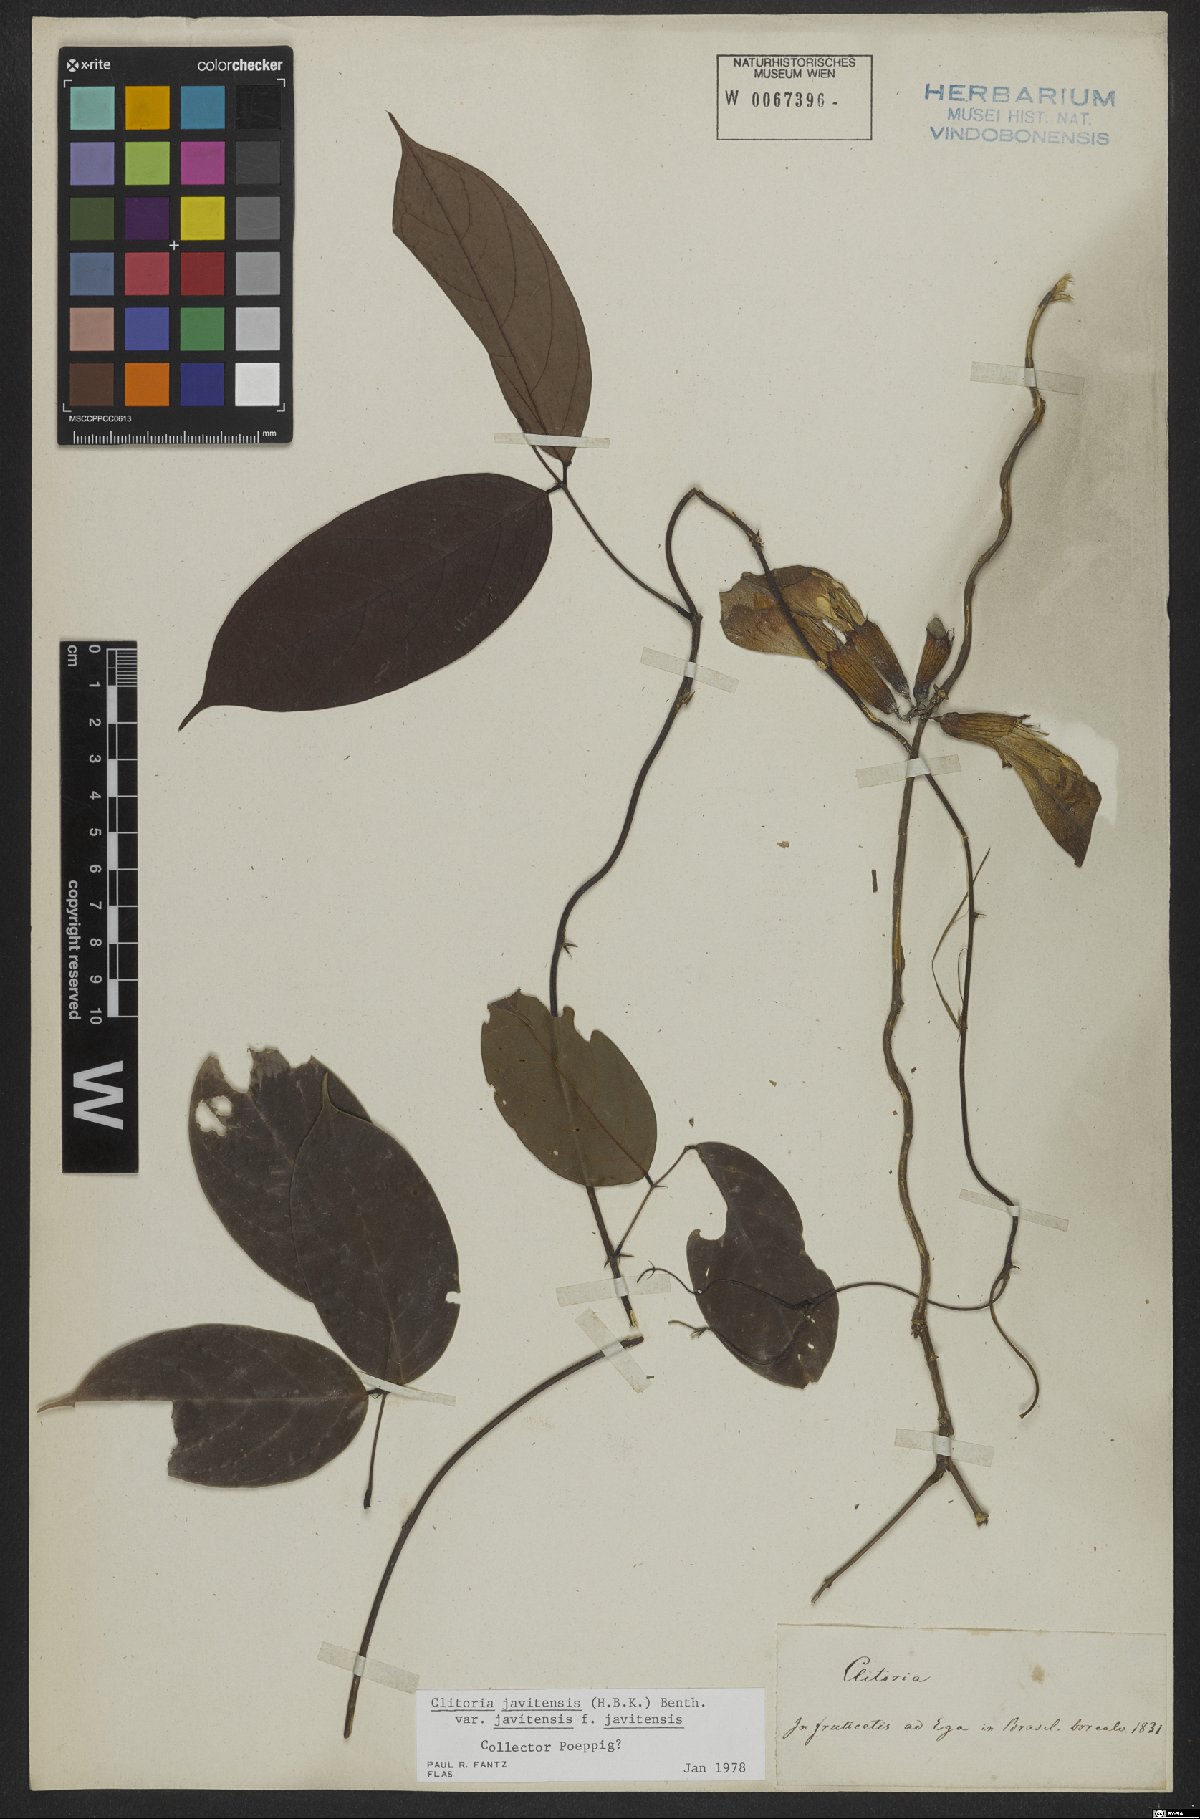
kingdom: Plantae
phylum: Tracheophyta
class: Magnoliopsida
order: Fabales
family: Fabaceae
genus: Clitoria
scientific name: Clitoria javitensis
